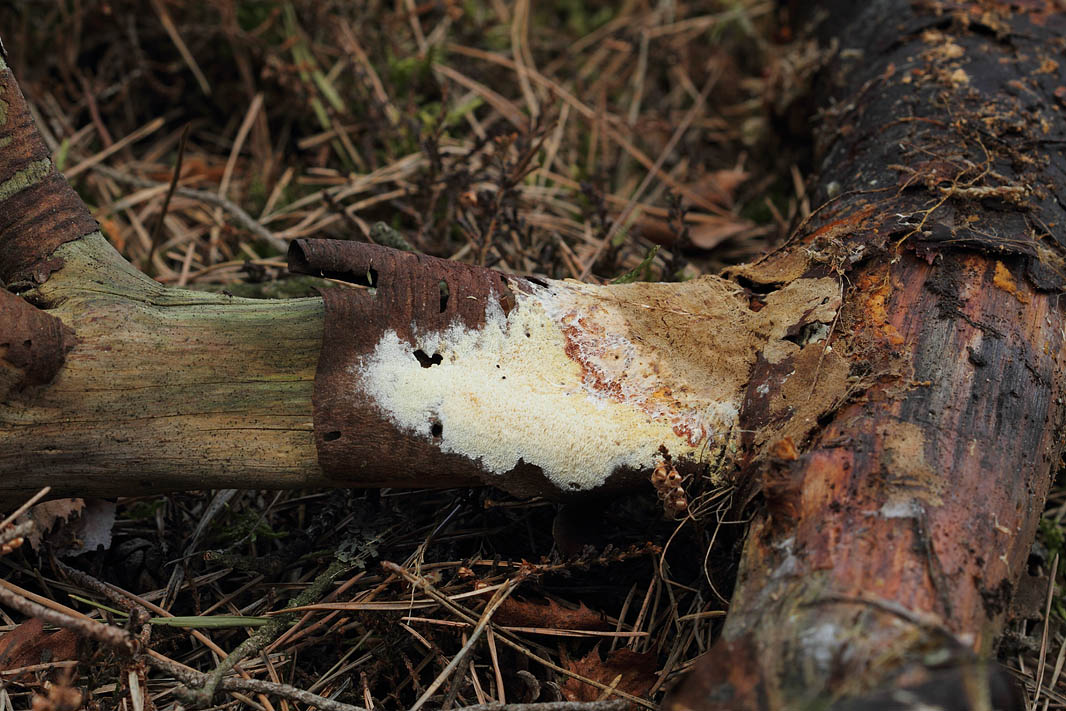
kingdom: Fungi
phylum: Basidiomycota
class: Agaricomycetes
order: Hymenochaetales
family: Schizoporaceae
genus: Xylodon
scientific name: Xylodon subtropicus
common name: labyrint-tandsvamp
